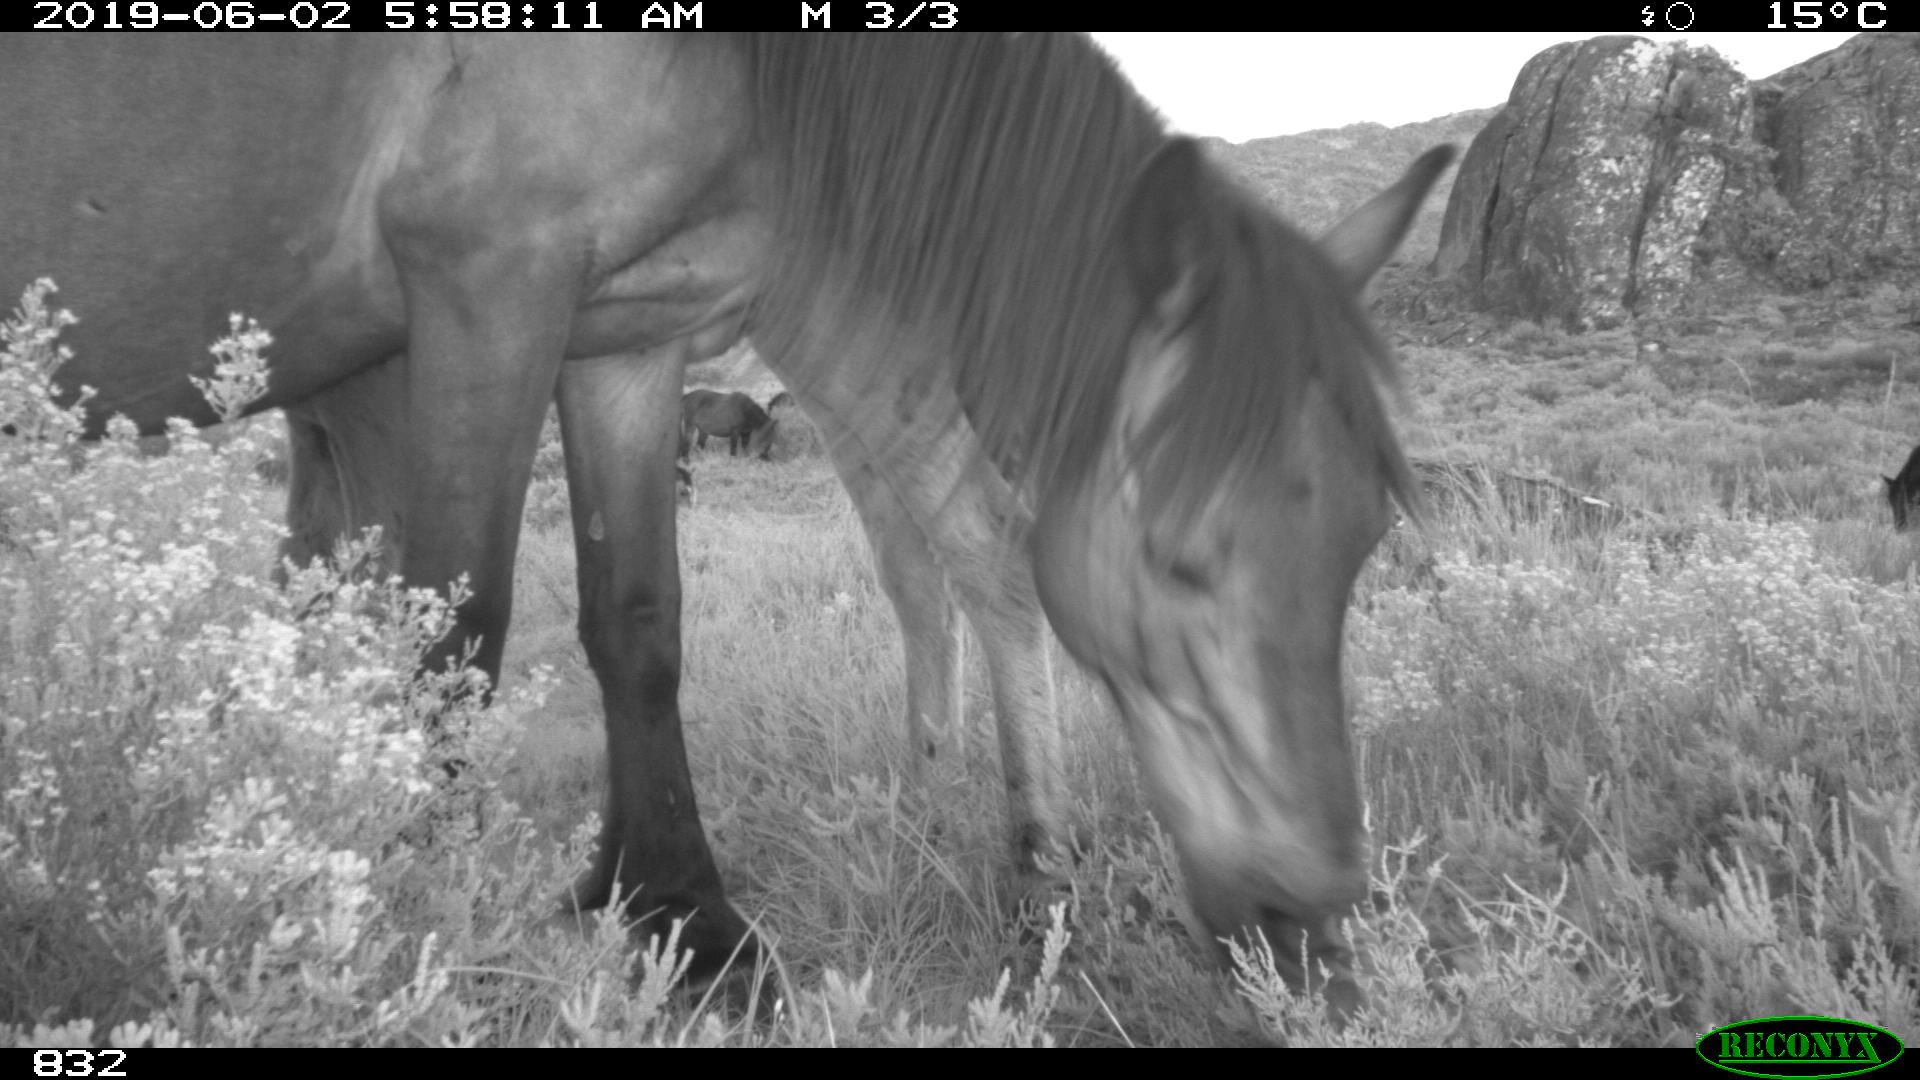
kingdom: Animalia
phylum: Chordata
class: Mammalia
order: Perissodactyla
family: Equidae
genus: Equus
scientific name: Equus caballus
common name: Horse
